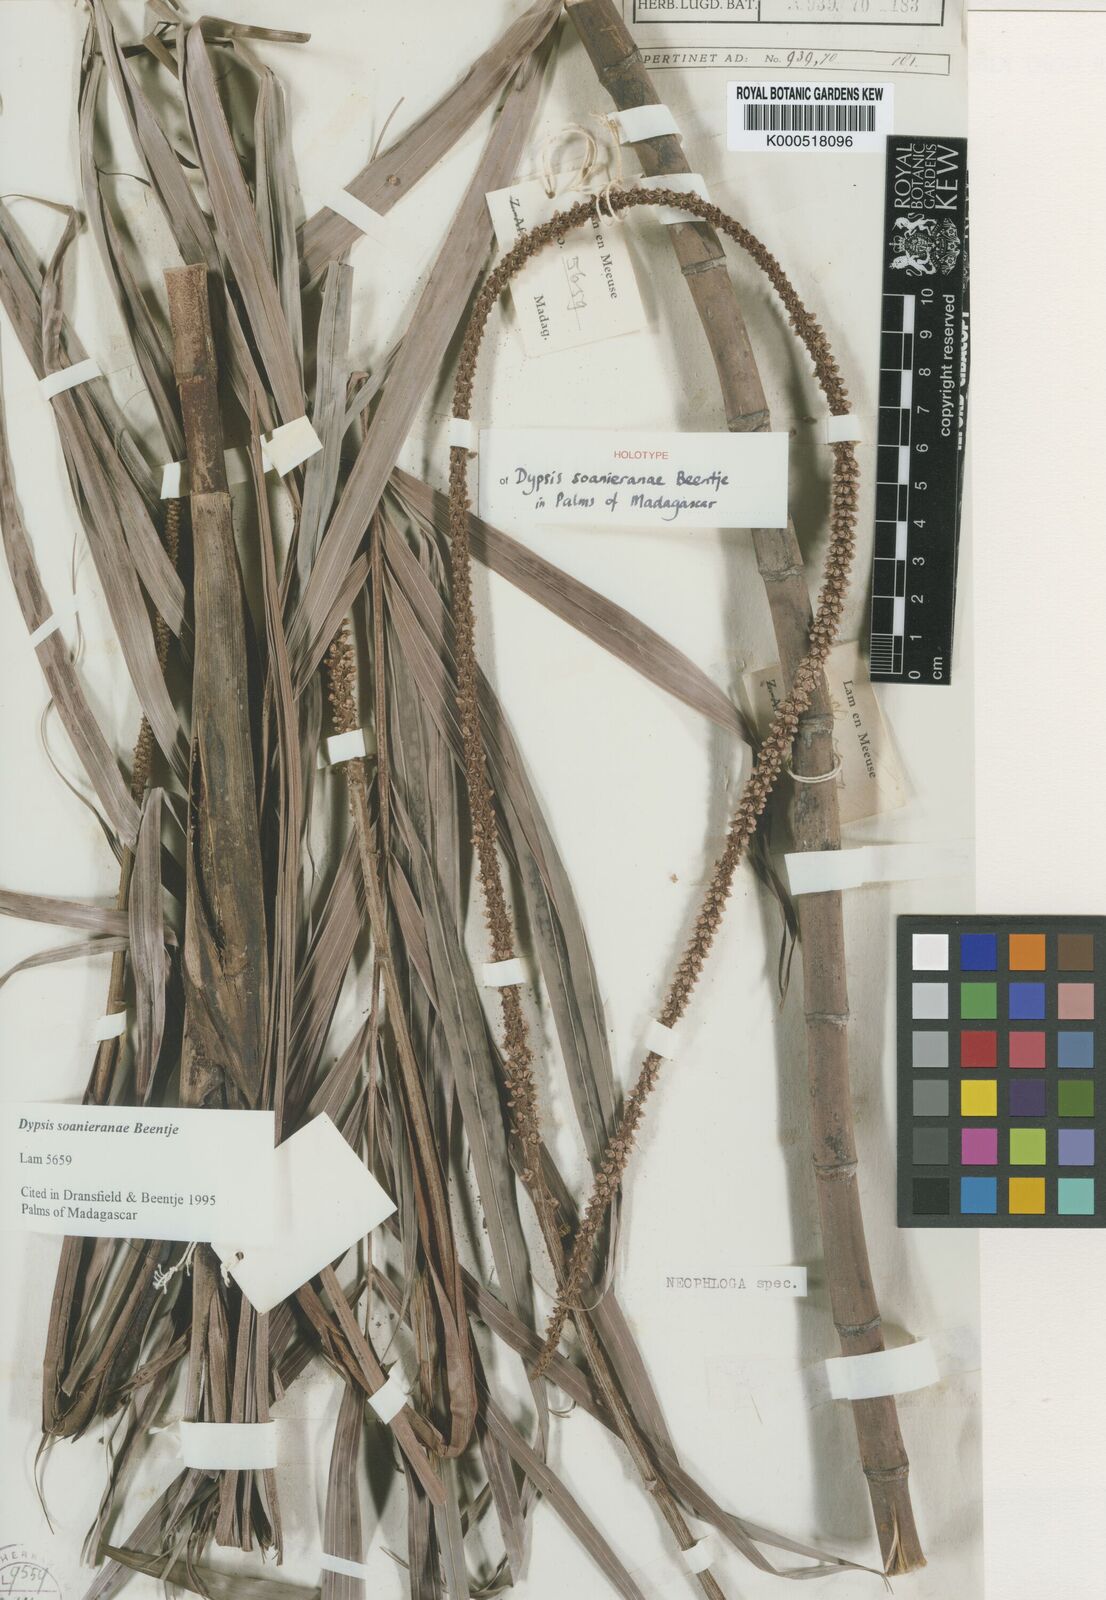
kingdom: Plantae
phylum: Tracheophyta
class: Liliopsida
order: Arecales
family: Arecaceae
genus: Dypsis
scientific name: Dypsis soanieranae
